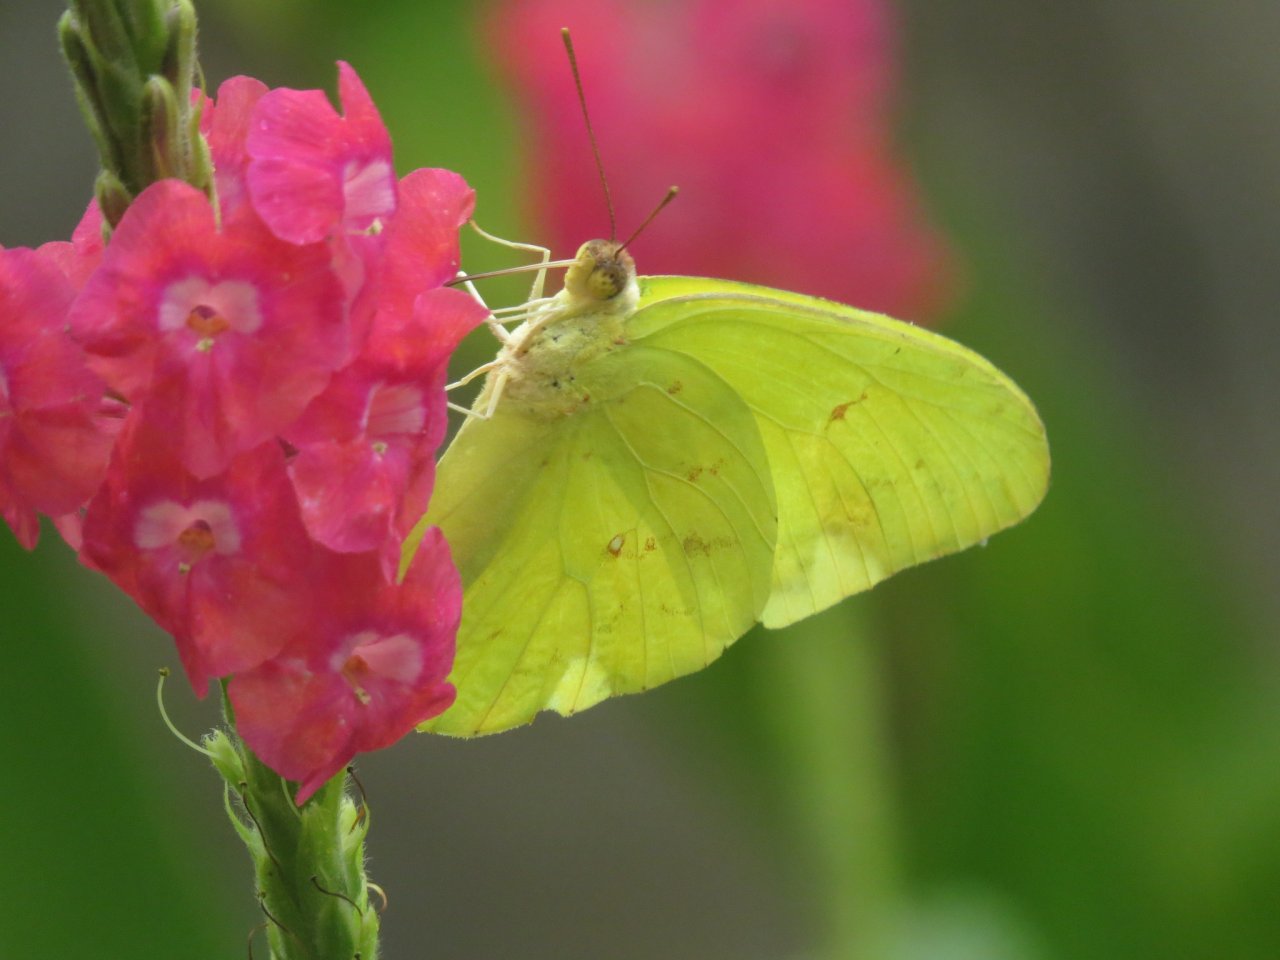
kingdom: Animalia
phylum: Arthropoda
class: Insecta
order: Lepidoptera
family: Pieridae
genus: Phoebis
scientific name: Phoebis sennae
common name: Cloudless Sulphur
